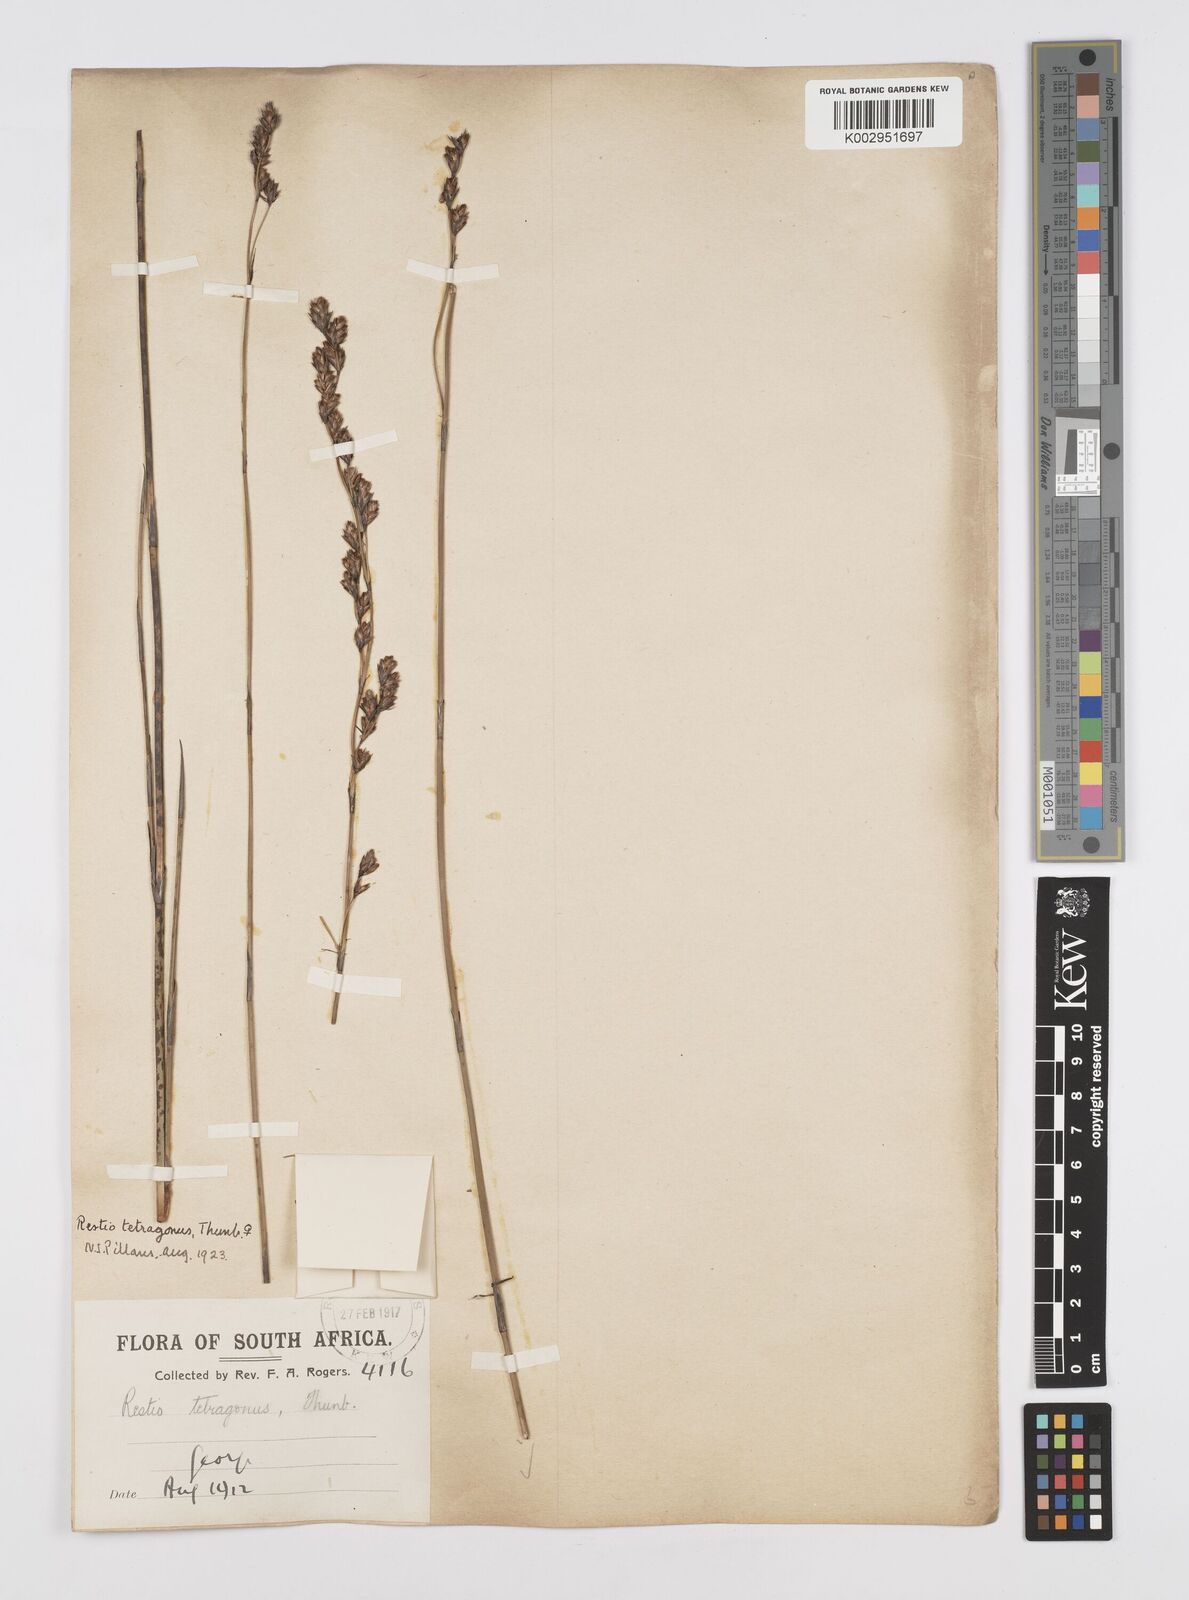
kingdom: Plantae
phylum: Tracheophyta
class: Liliopsida
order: Poales
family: Restionaceae
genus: Restio
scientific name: Restio tetragonus
